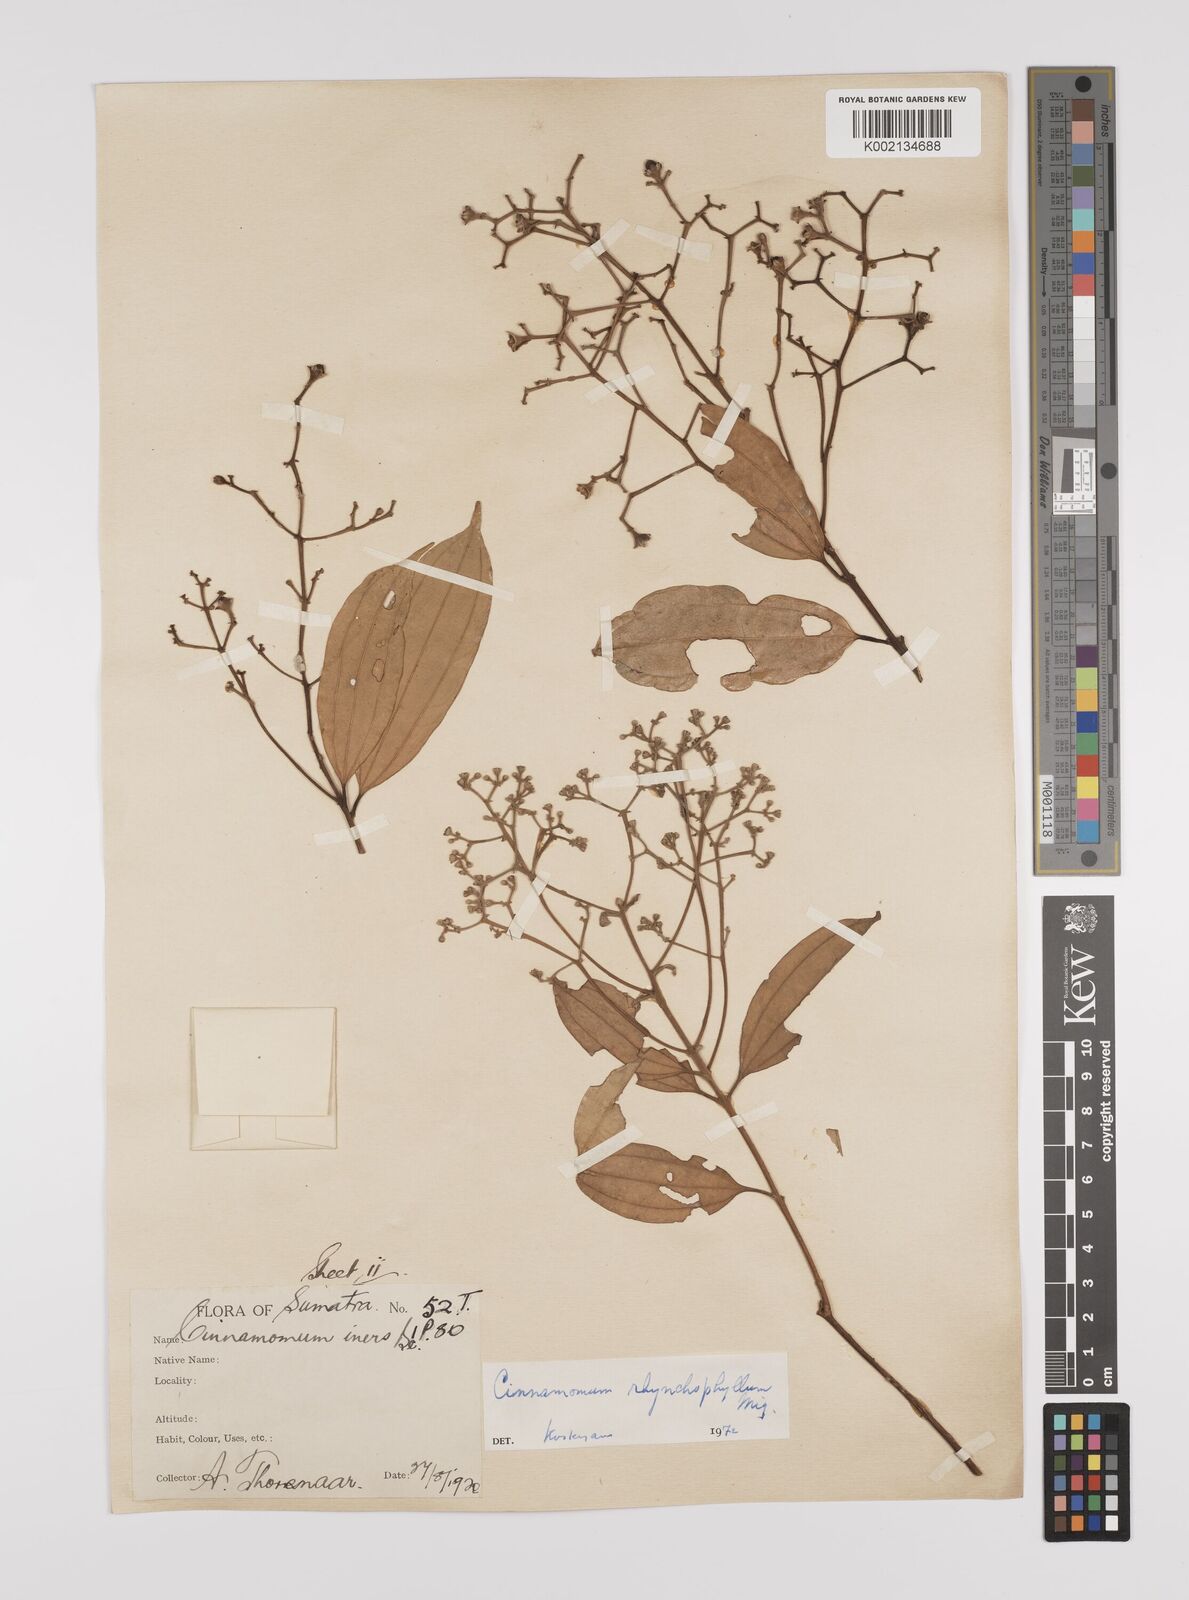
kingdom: Plantae
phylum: Tracheophyta
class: Magnoliopsida
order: Laurales
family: Lauraceae
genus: Cinnamomum
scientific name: Cinnamomum rhynchophyllum
